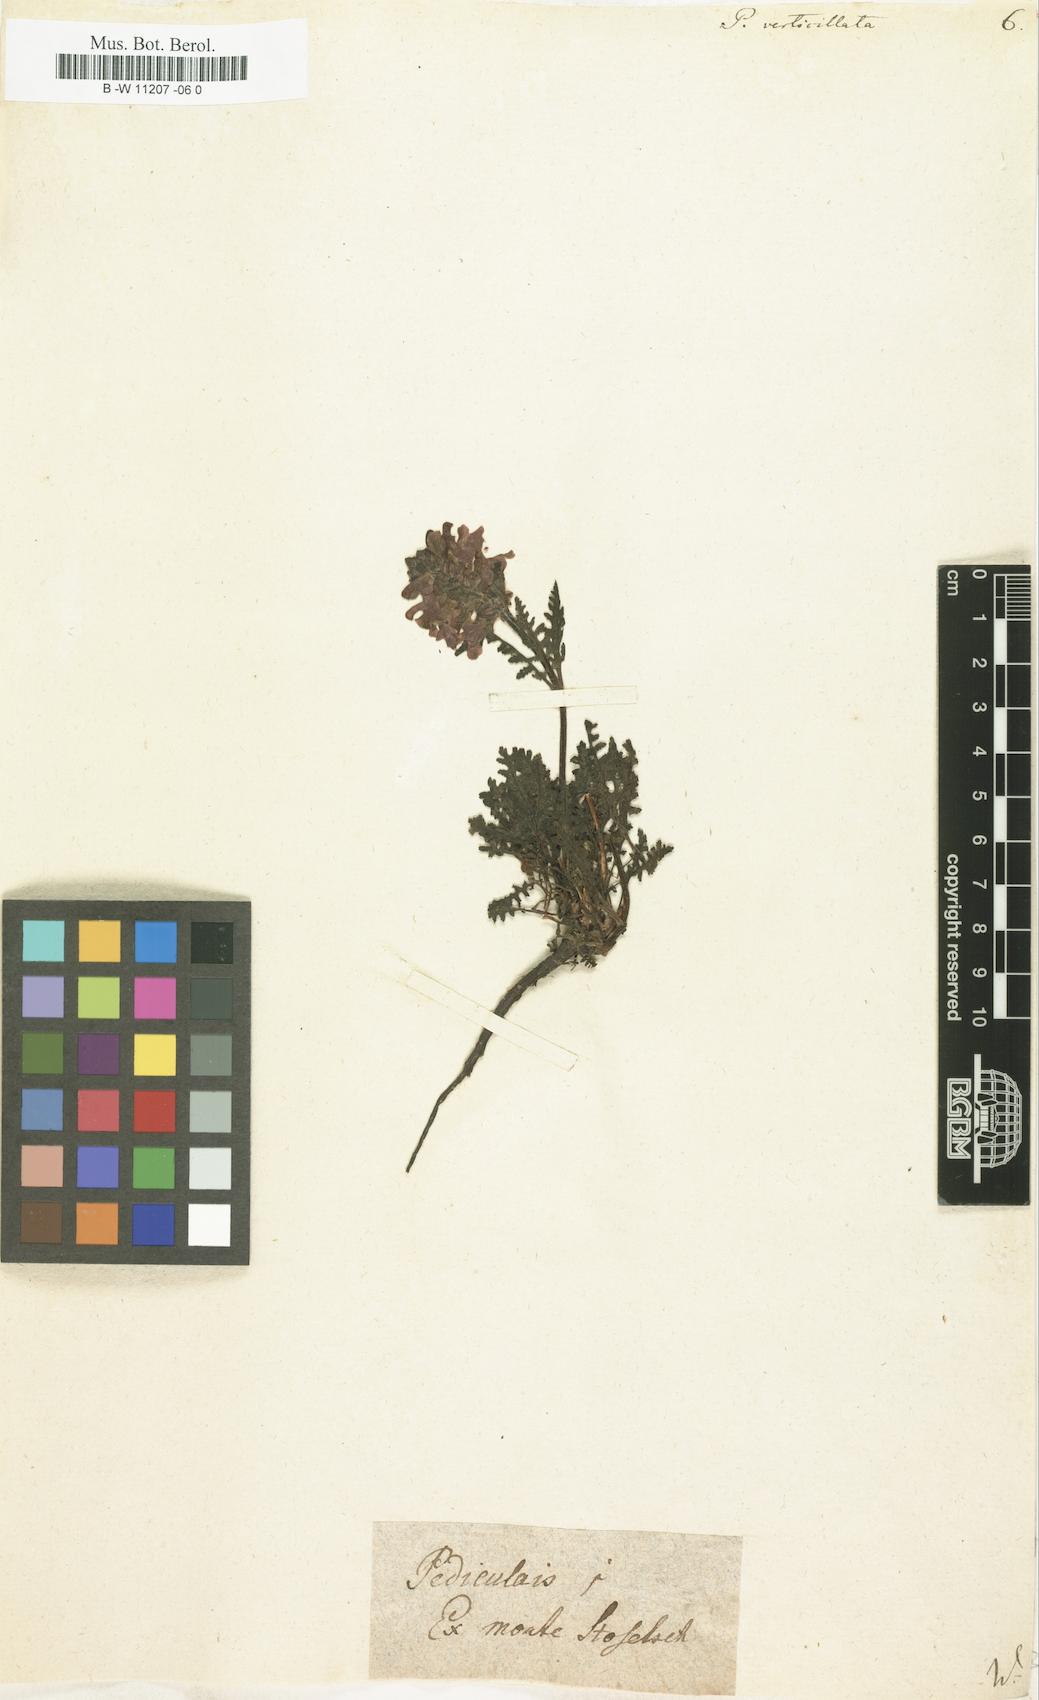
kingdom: Plantae
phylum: Tracheophyta
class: Magnoliopsida
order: Lamiales
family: Orobanchaceae
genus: Pedicularis
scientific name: Pedicularis verticillata
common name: Whorled lousewort
